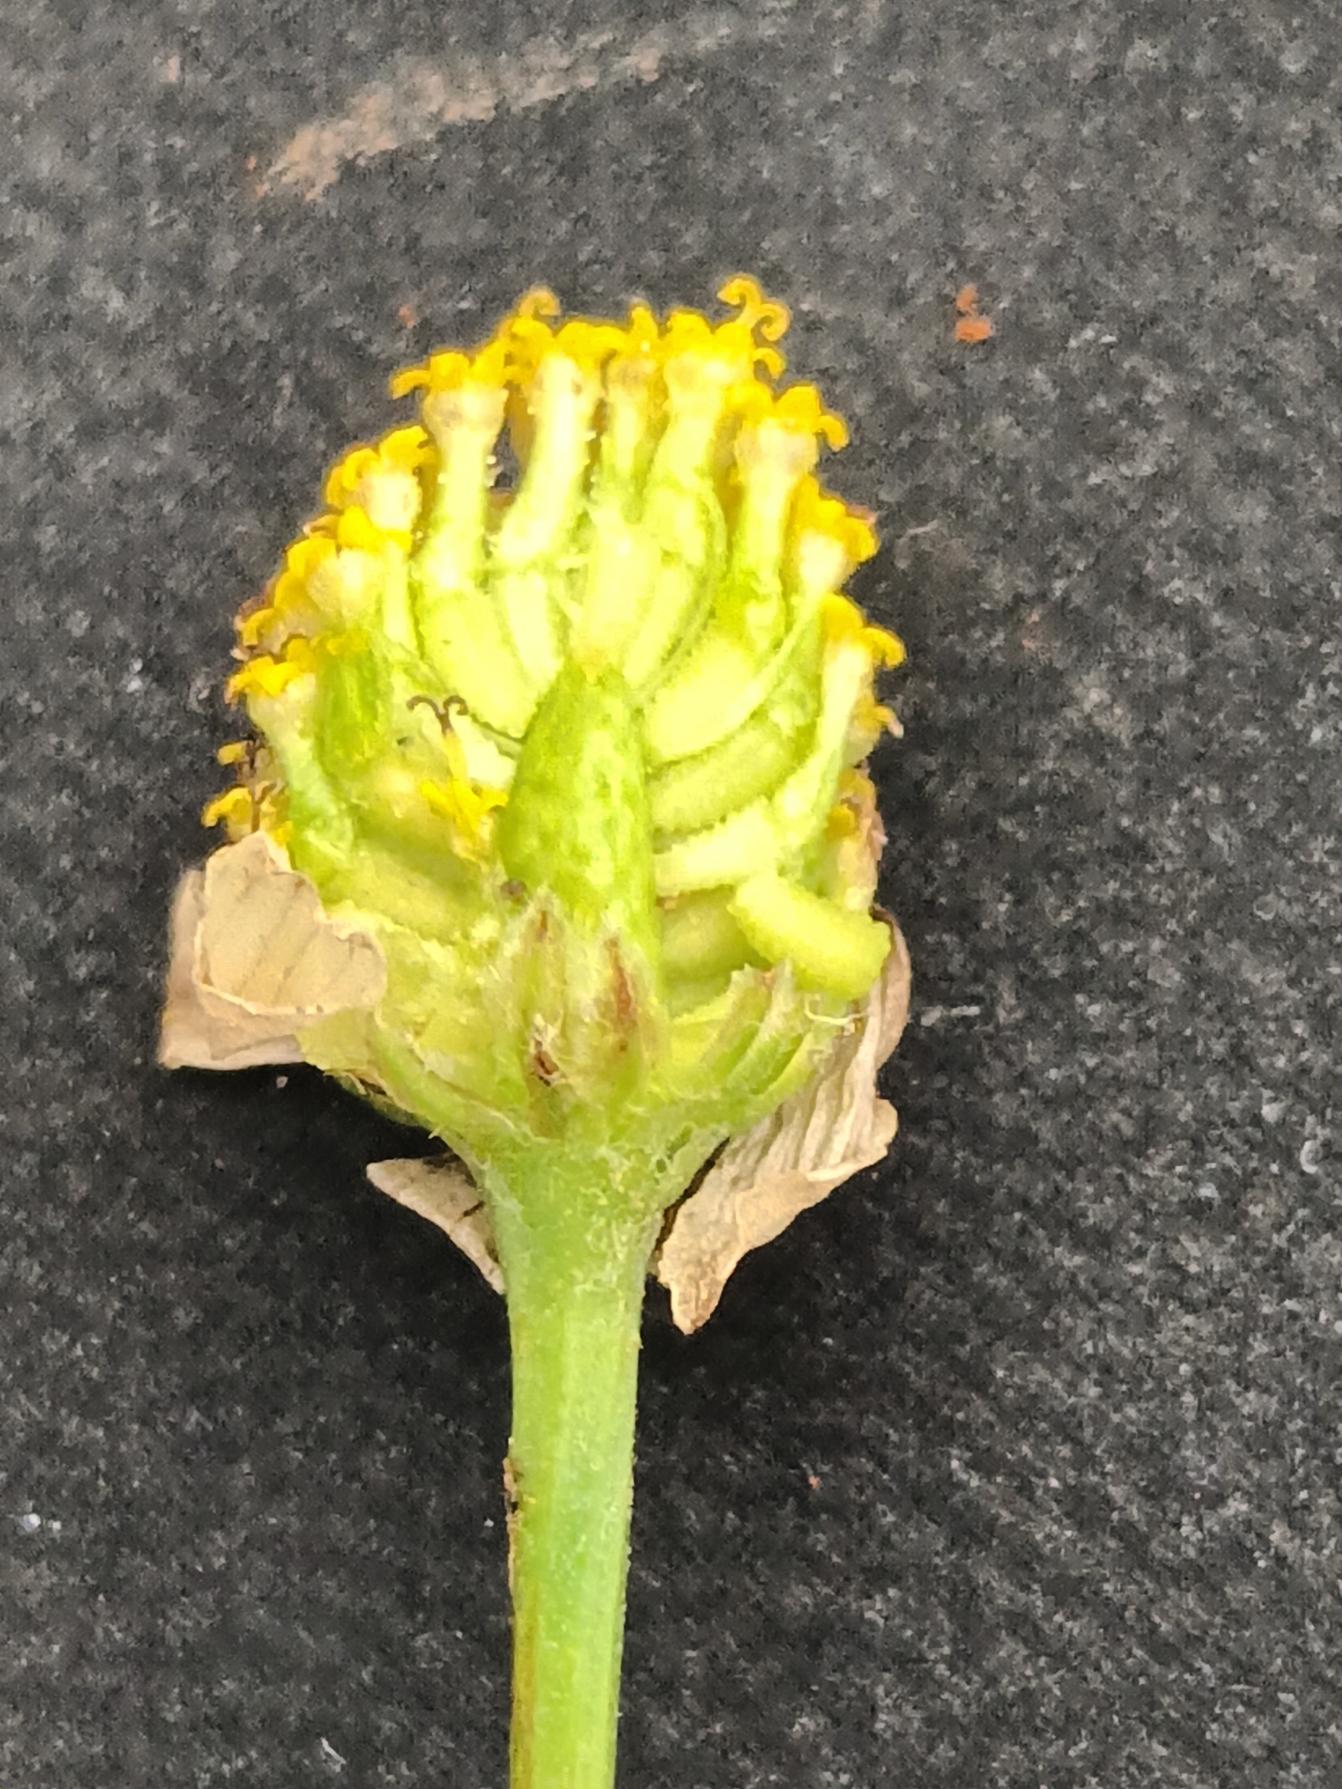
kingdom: Plantae
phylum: Tracheophyta
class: Magnoliopsida
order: Asterales
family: Asteraceae
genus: Anthemis
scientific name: Anthemis cotula
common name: Stinkende gåseurt
